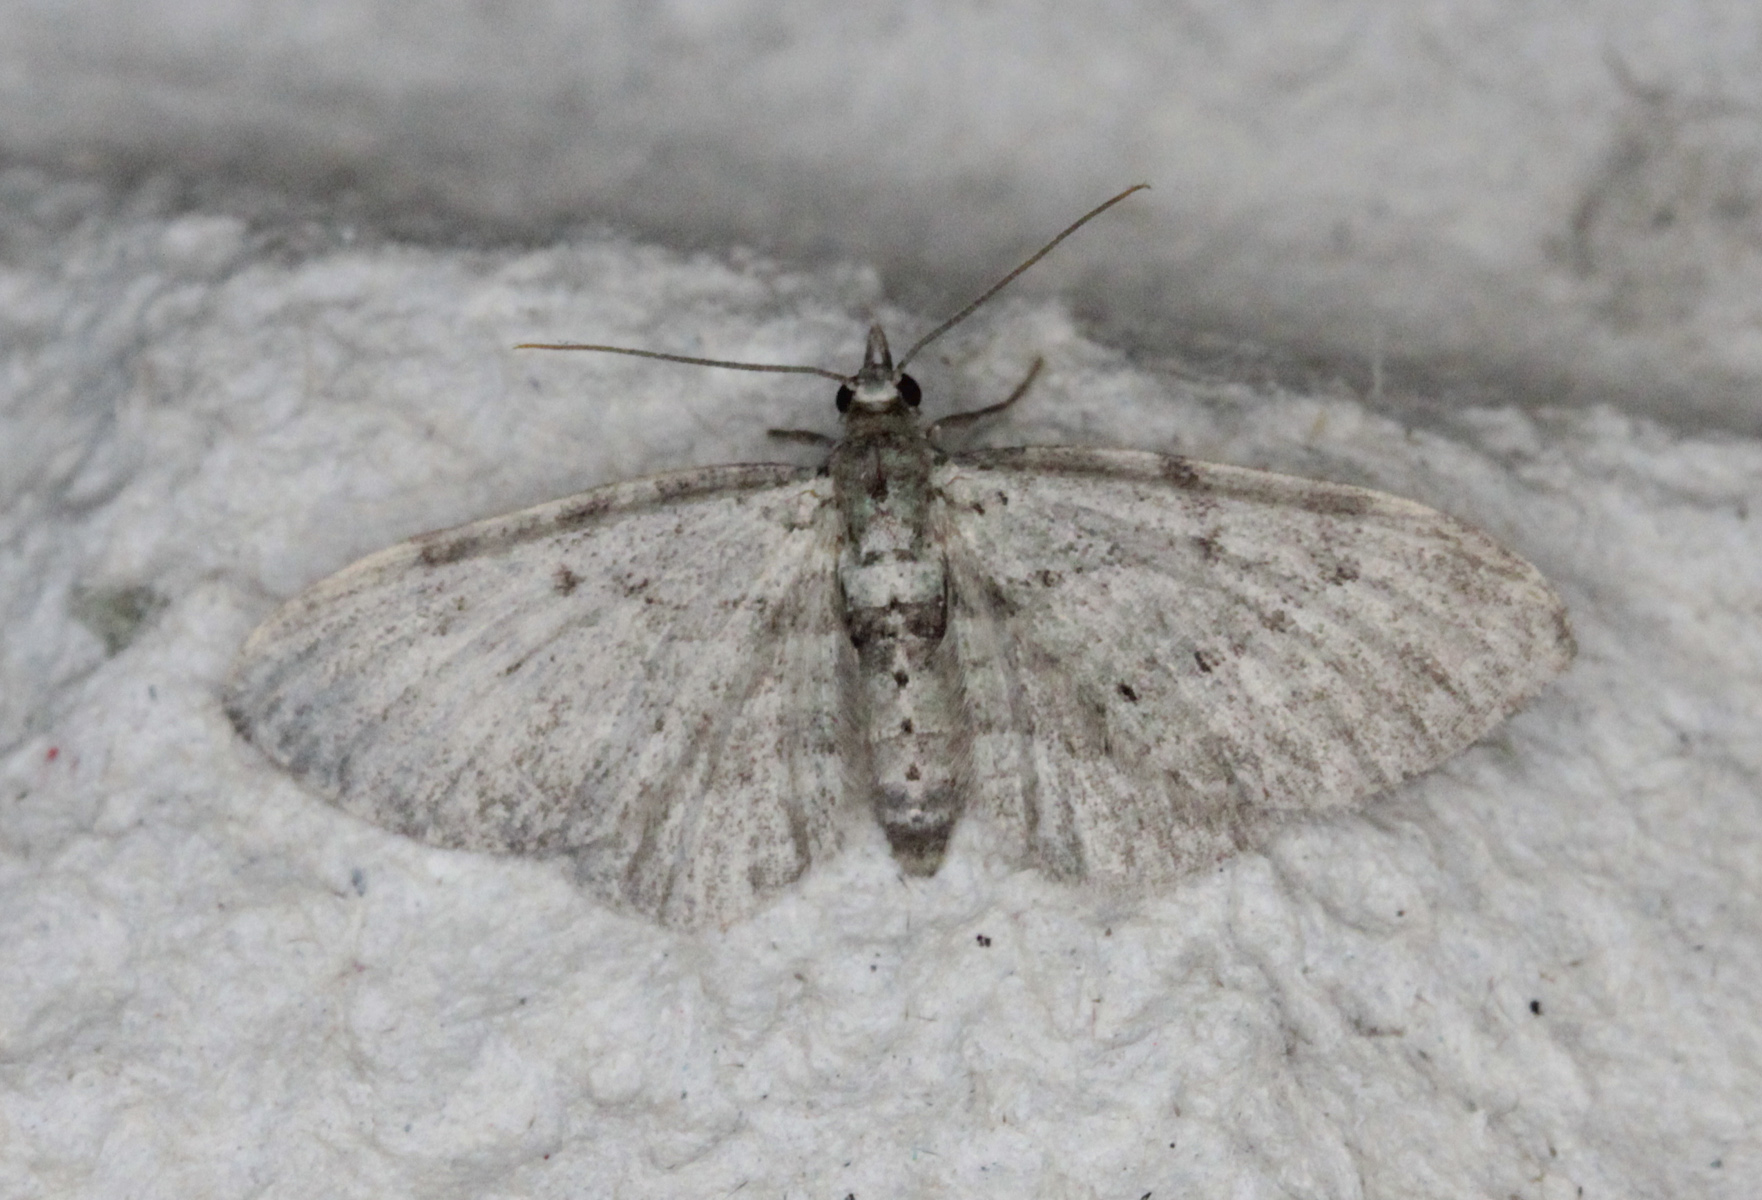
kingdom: Animalia
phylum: Arthropoda
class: Insecta
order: Lepidoptera
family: Geometridae
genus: Pasiphila
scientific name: Pasiphila rectangulata
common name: Green pug
